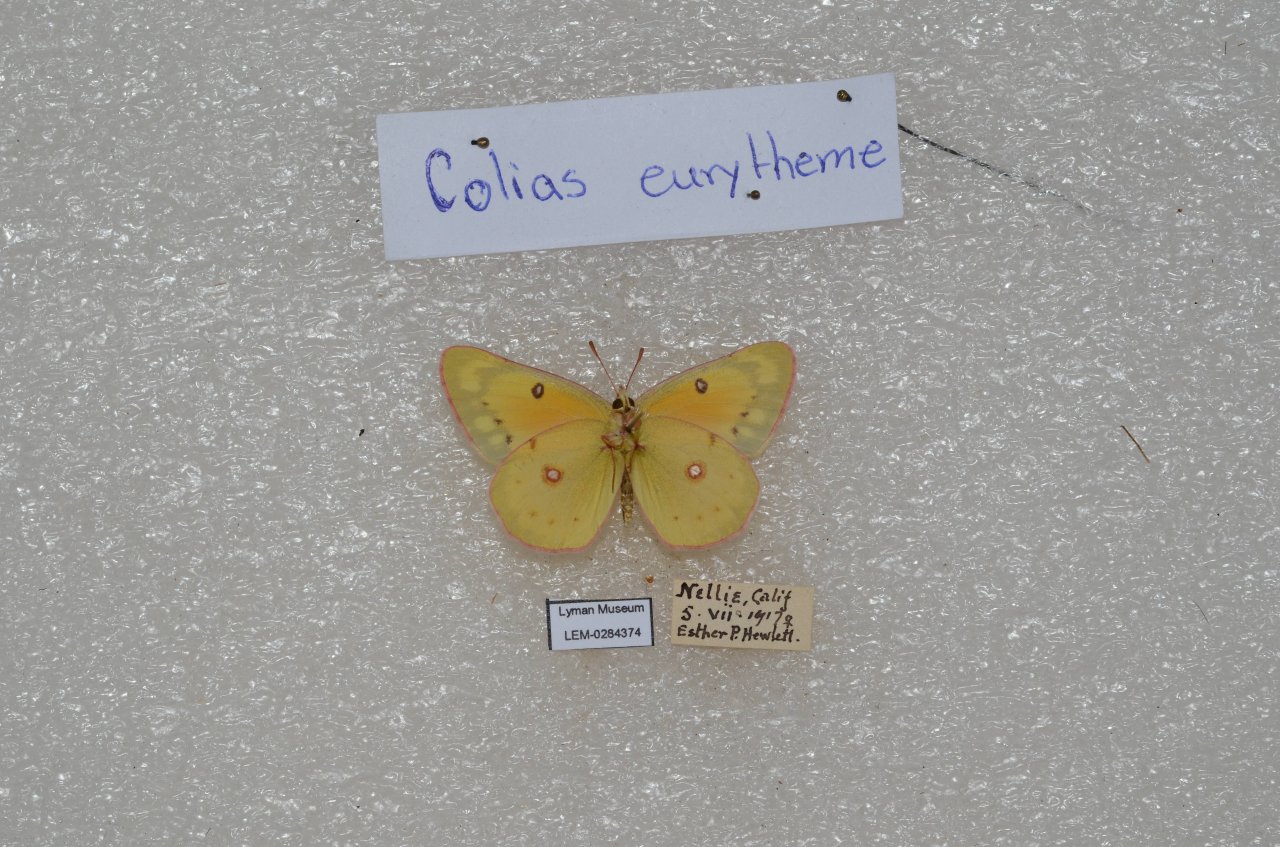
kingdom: Animalia
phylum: Arthropoda
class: Insecta
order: Lepidoptera
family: Pieridae
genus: Colias
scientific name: Colias eurytheme
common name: Orange Sulphur
